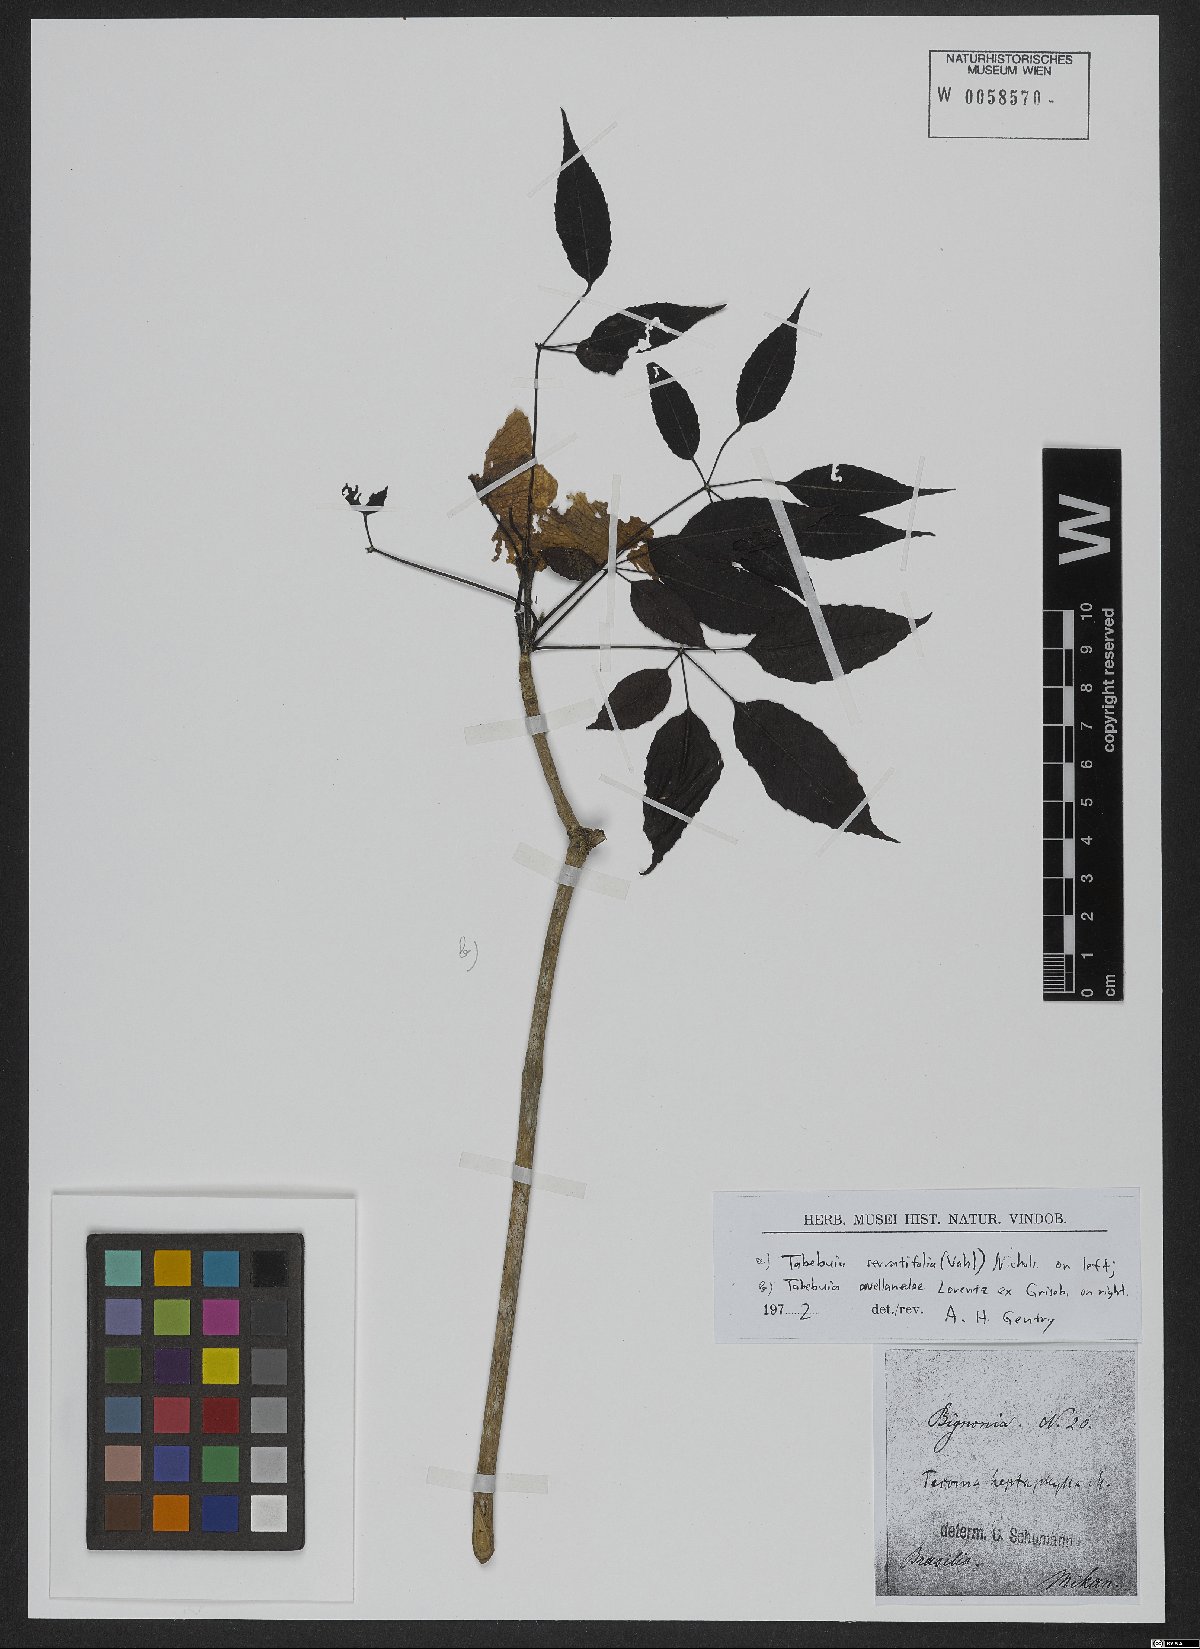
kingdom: Plantae
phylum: Tracheophyta
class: Magnoliopsida
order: Lamiales
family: Bignoniaceae
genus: Handroanthus
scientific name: Handroanthus impetiginosum
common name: Pink trumpet tree
